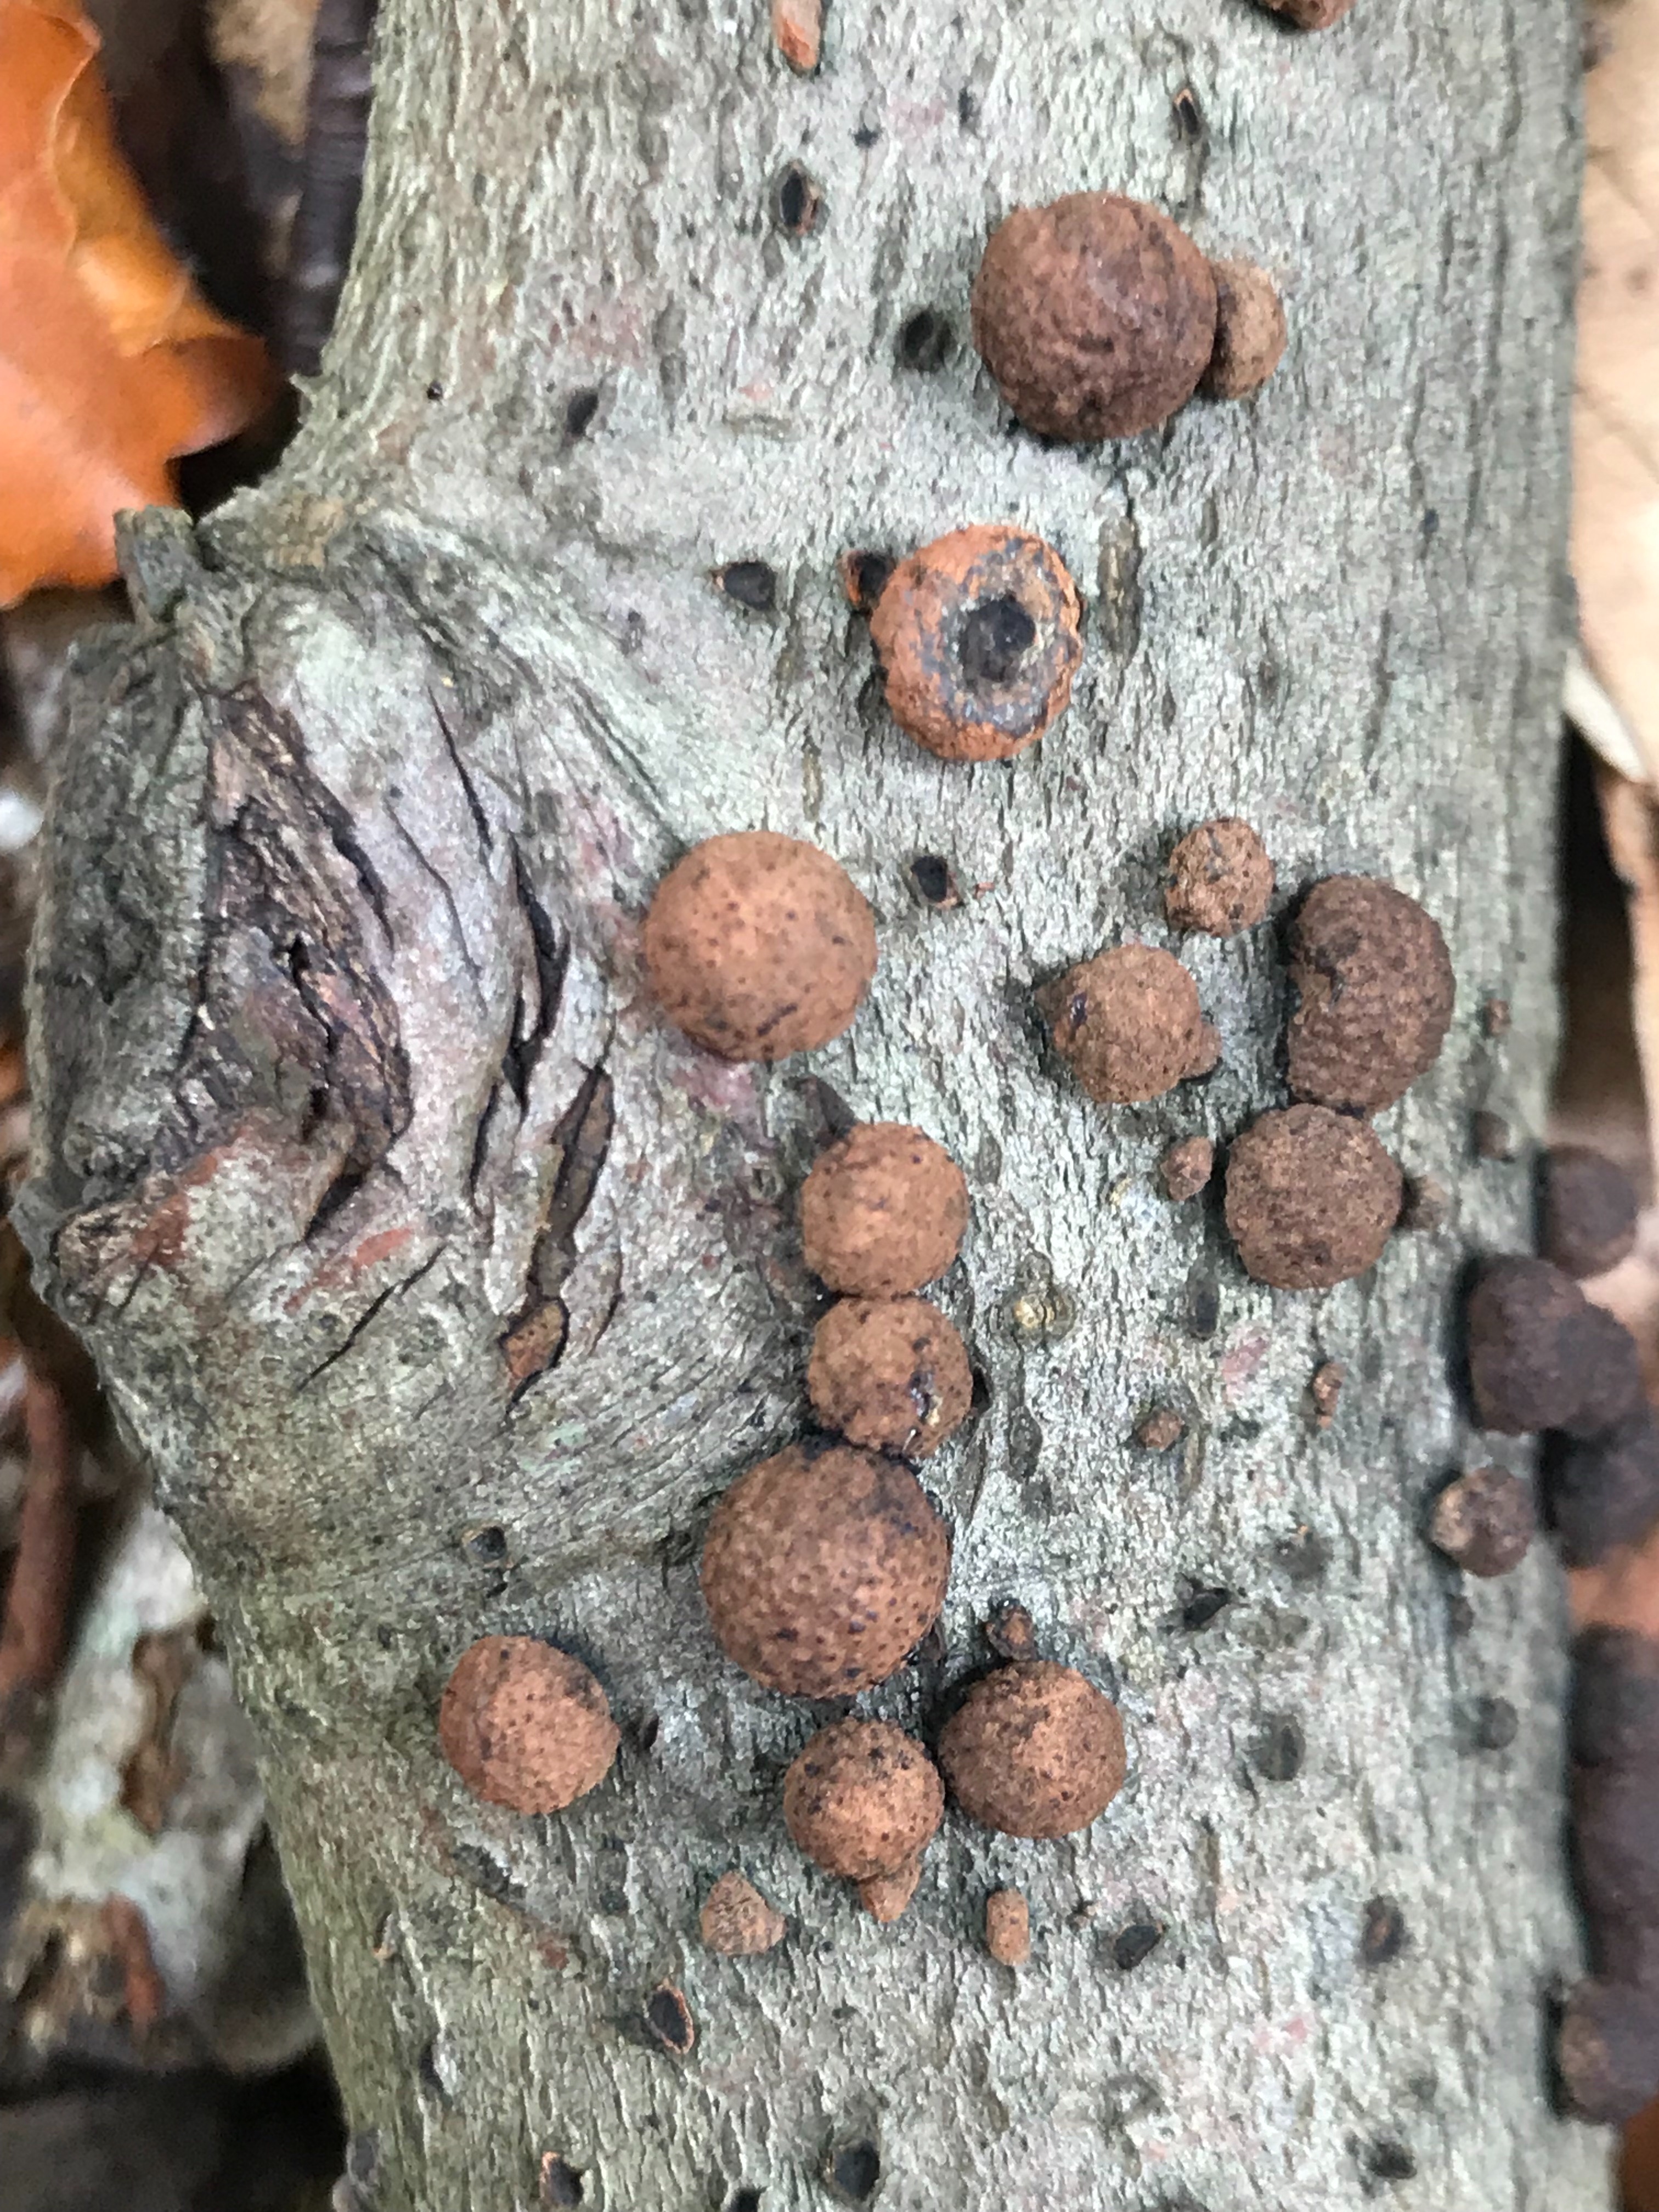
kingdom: Fungi
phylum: Ascomycota
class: Sordariomycetes
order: Xylariales
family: Hypoxylaceae
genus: Hypoxylon
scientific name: Hypoxylon fragiforme
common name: kuljordbær
